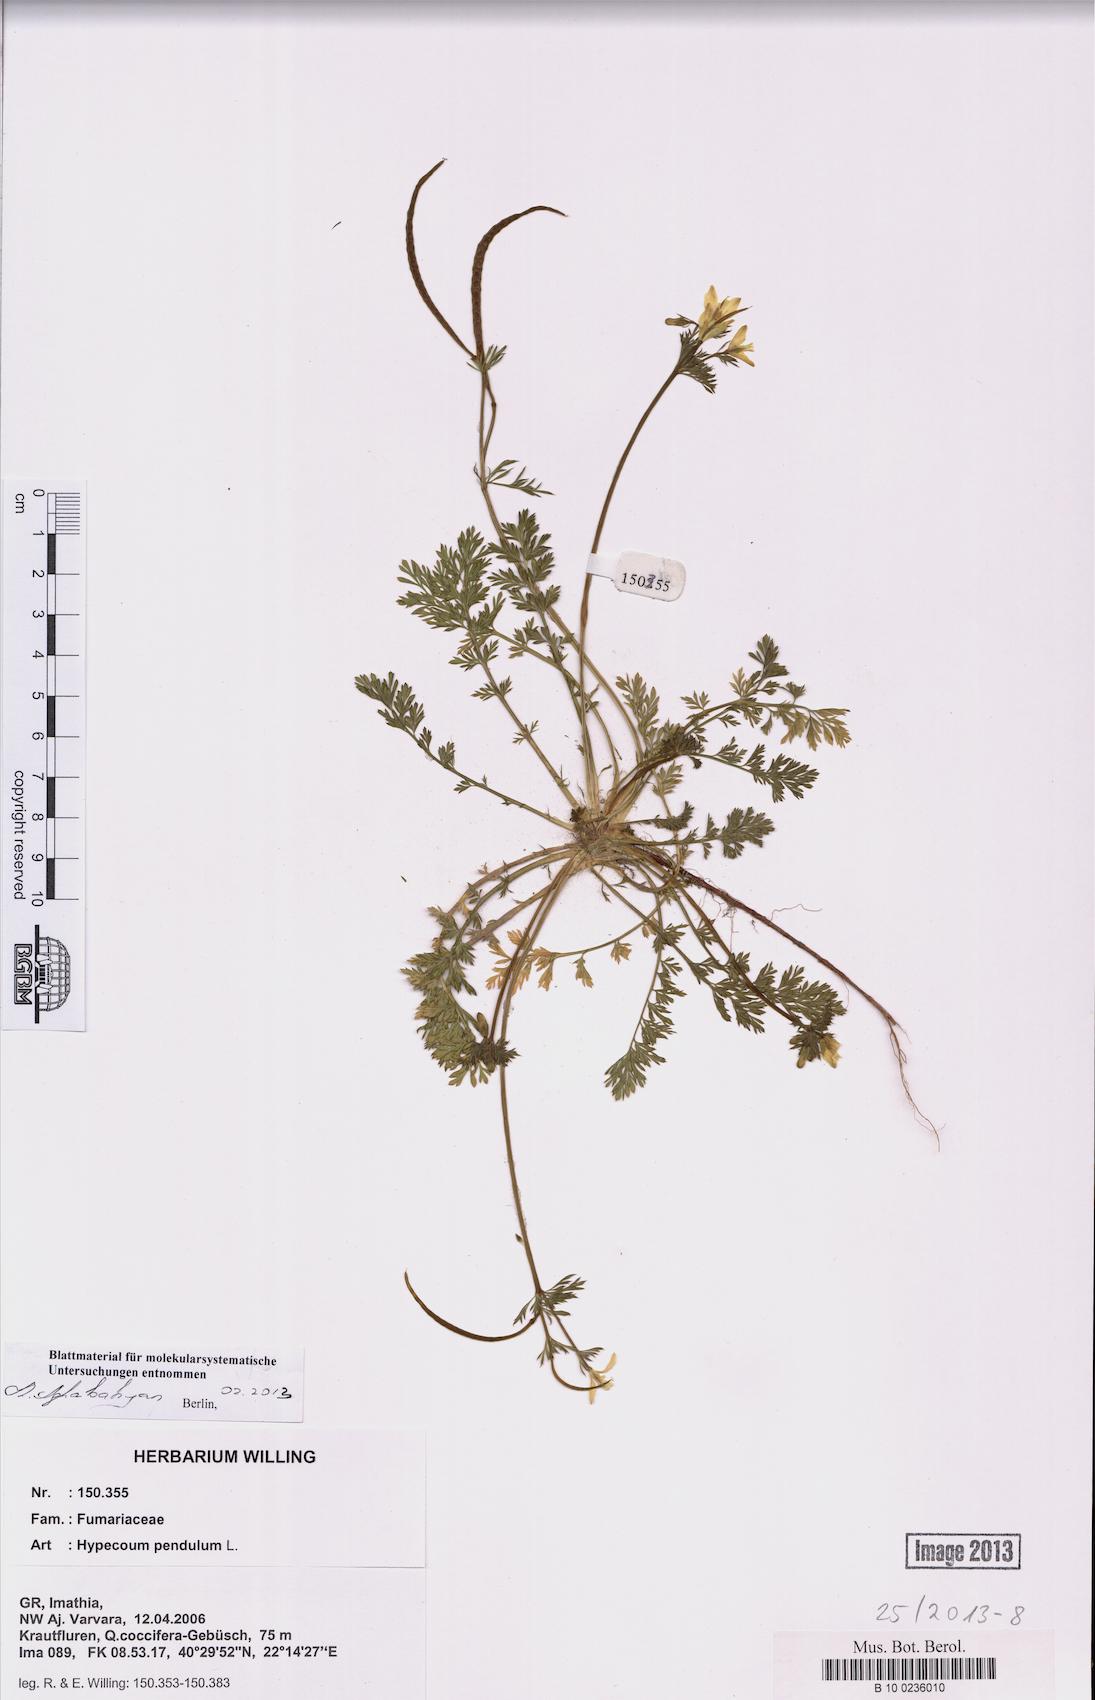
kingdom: Plantae
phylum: Tracheophyta
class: Magnoliopsida
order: Ranunculales
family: Papaveraceae
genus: Hypecoum
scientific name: Hypecoum pendulum
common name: Nodding hypecoum
